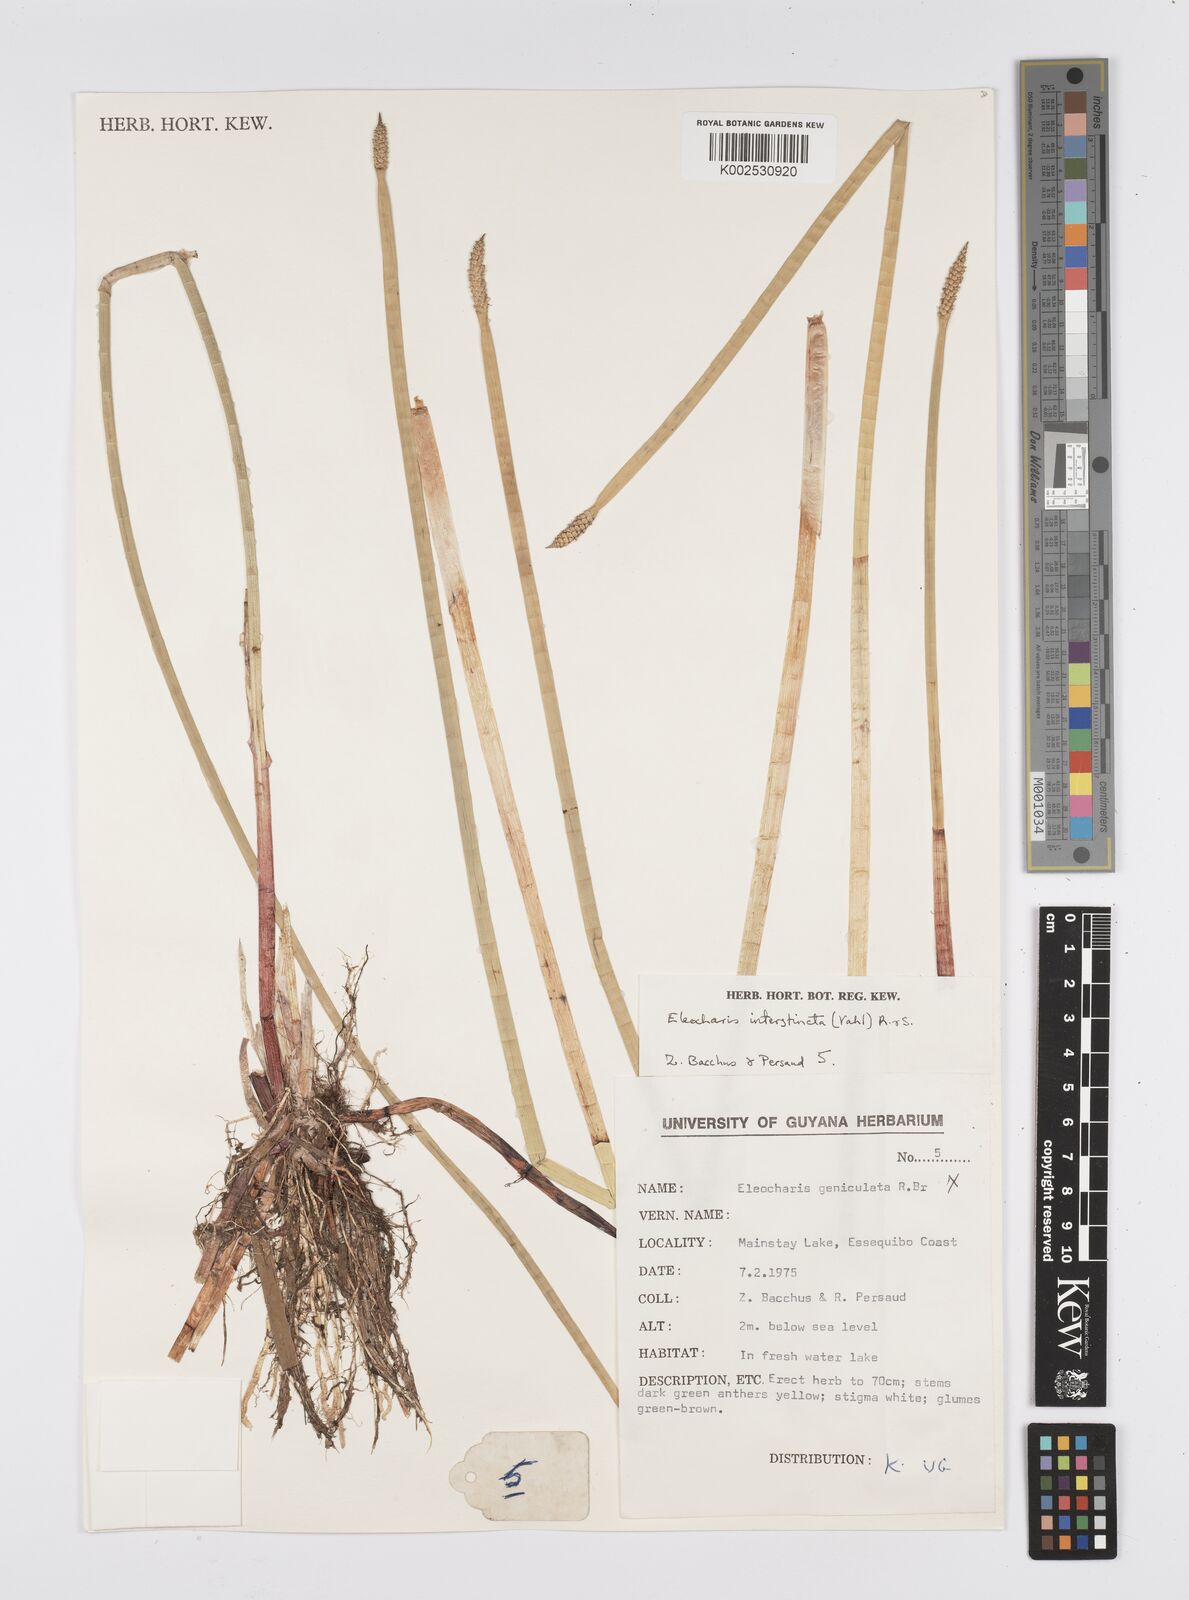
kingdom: Plantae
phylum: Tracheophyta
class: Liliopsida
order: Poales
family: Cyperaceae
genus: Eleocharis
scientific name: Eleocharis interstincta
